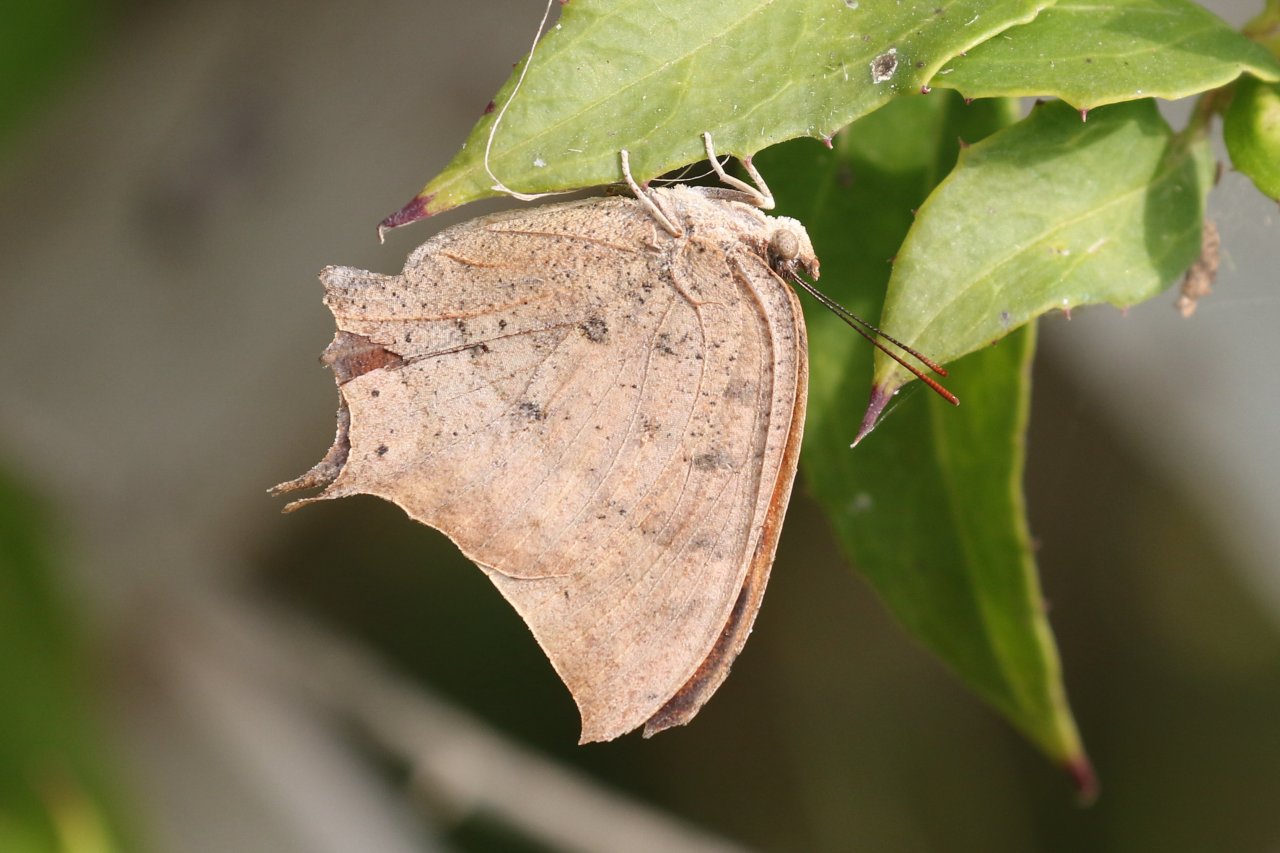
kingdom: Animalia
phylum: Arthropoda
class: Insecta
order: Lepidoptera
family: Nymphalidae
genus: Anaea
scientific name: Anaea aidea
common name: Tropical Leafwing
